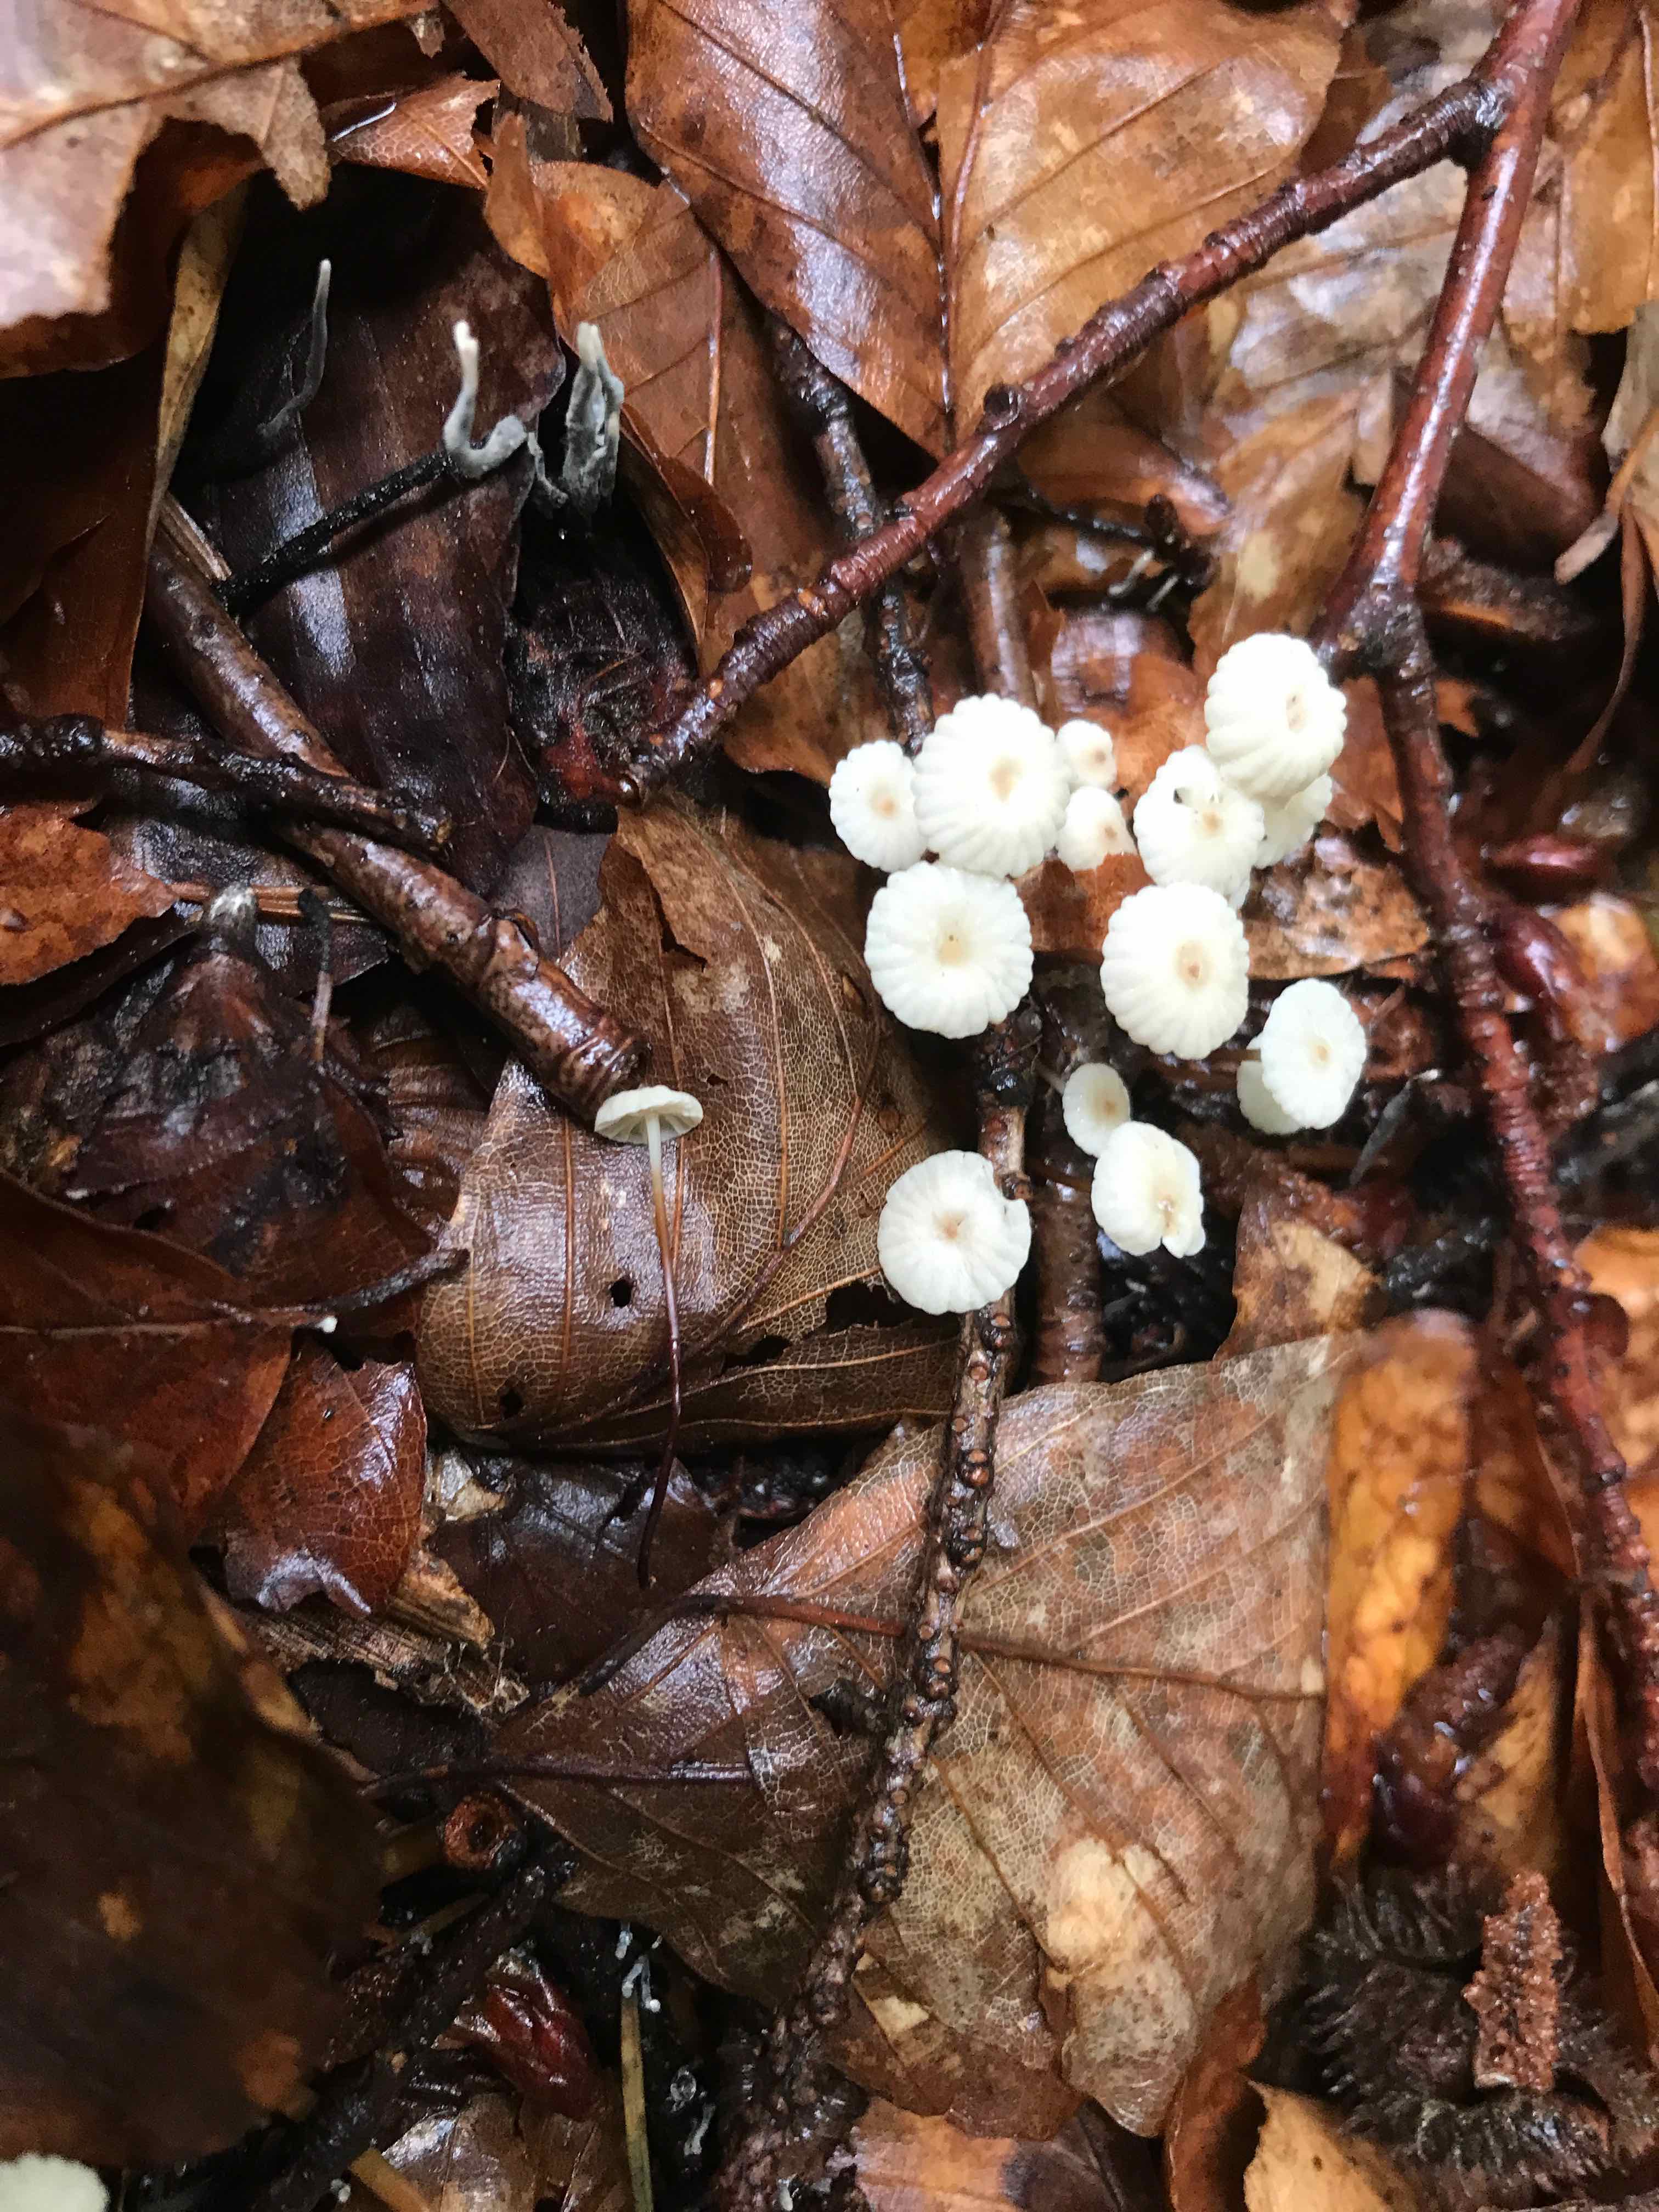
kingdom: Fungi
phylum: Basidiomycota
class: Agaricomycetes
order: Agaricales
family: Marasmiaceae
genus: Marasmius
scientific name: Marasmius rotula
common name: hjul-bruskhat
